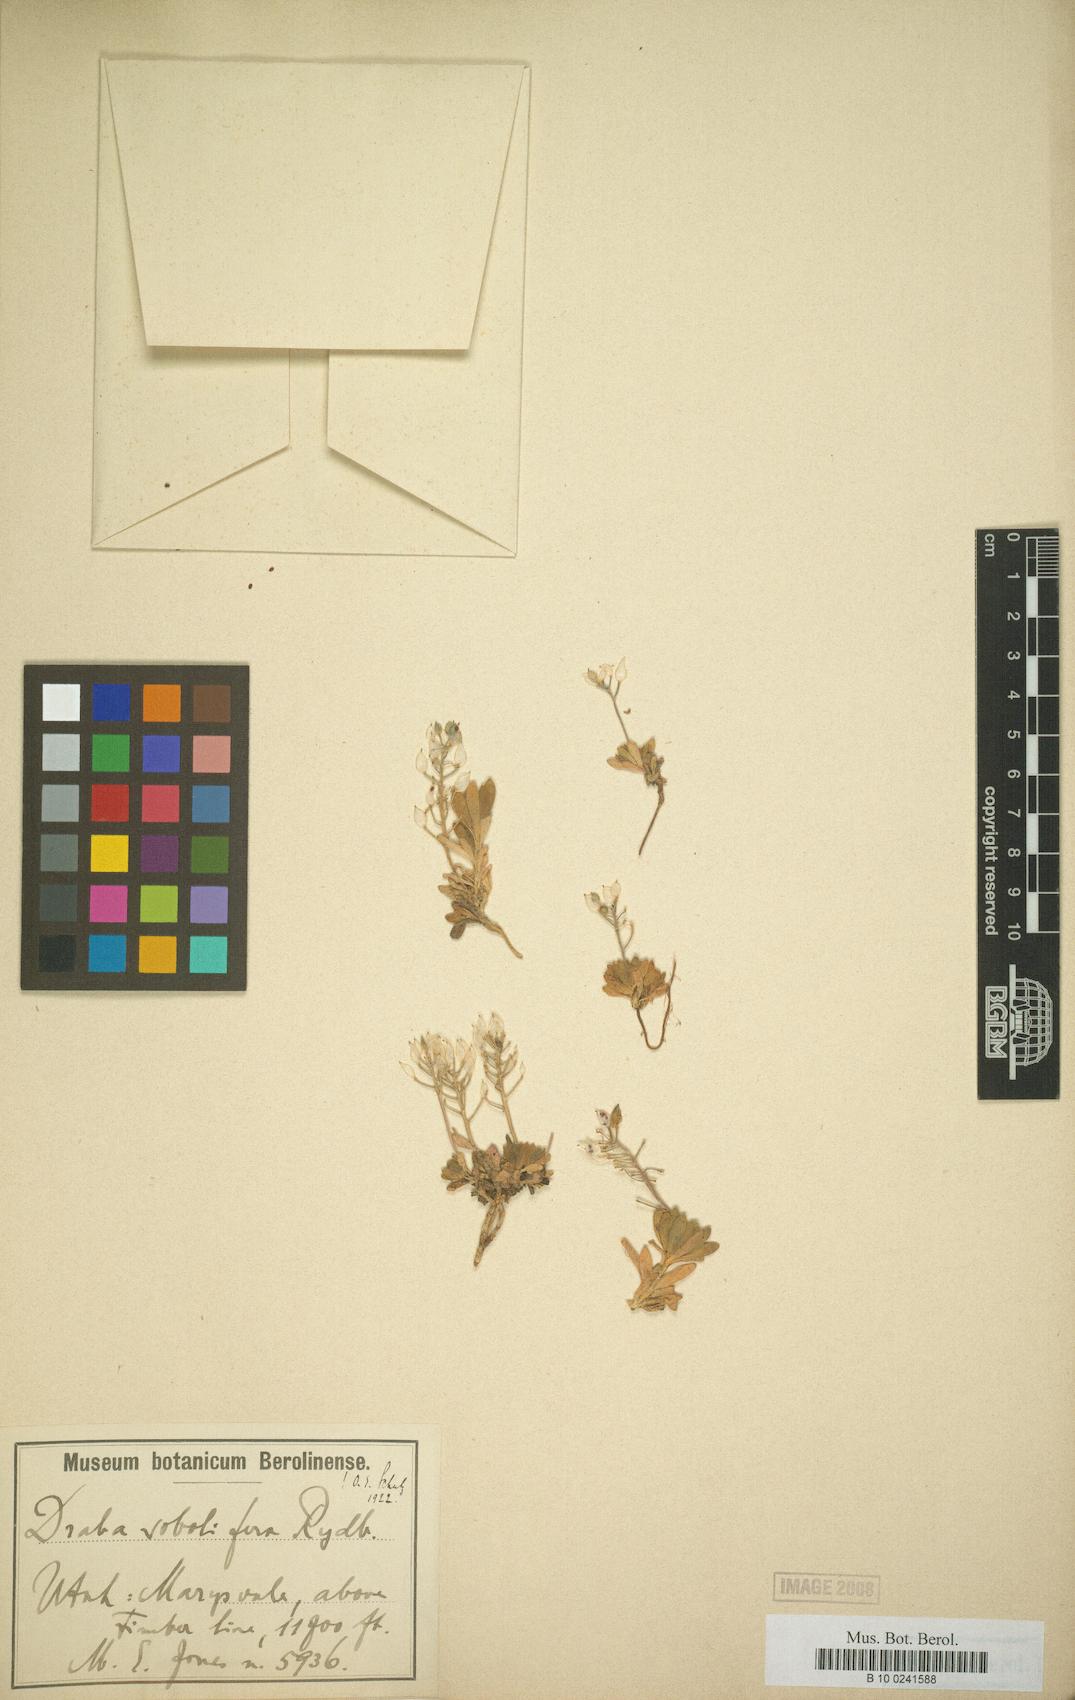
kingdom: Plantae
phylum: Tracheophyta
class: Magnoliopsida
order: Brassicales
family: Brassicaceae
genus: Draba
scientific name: Draba sobolifera
